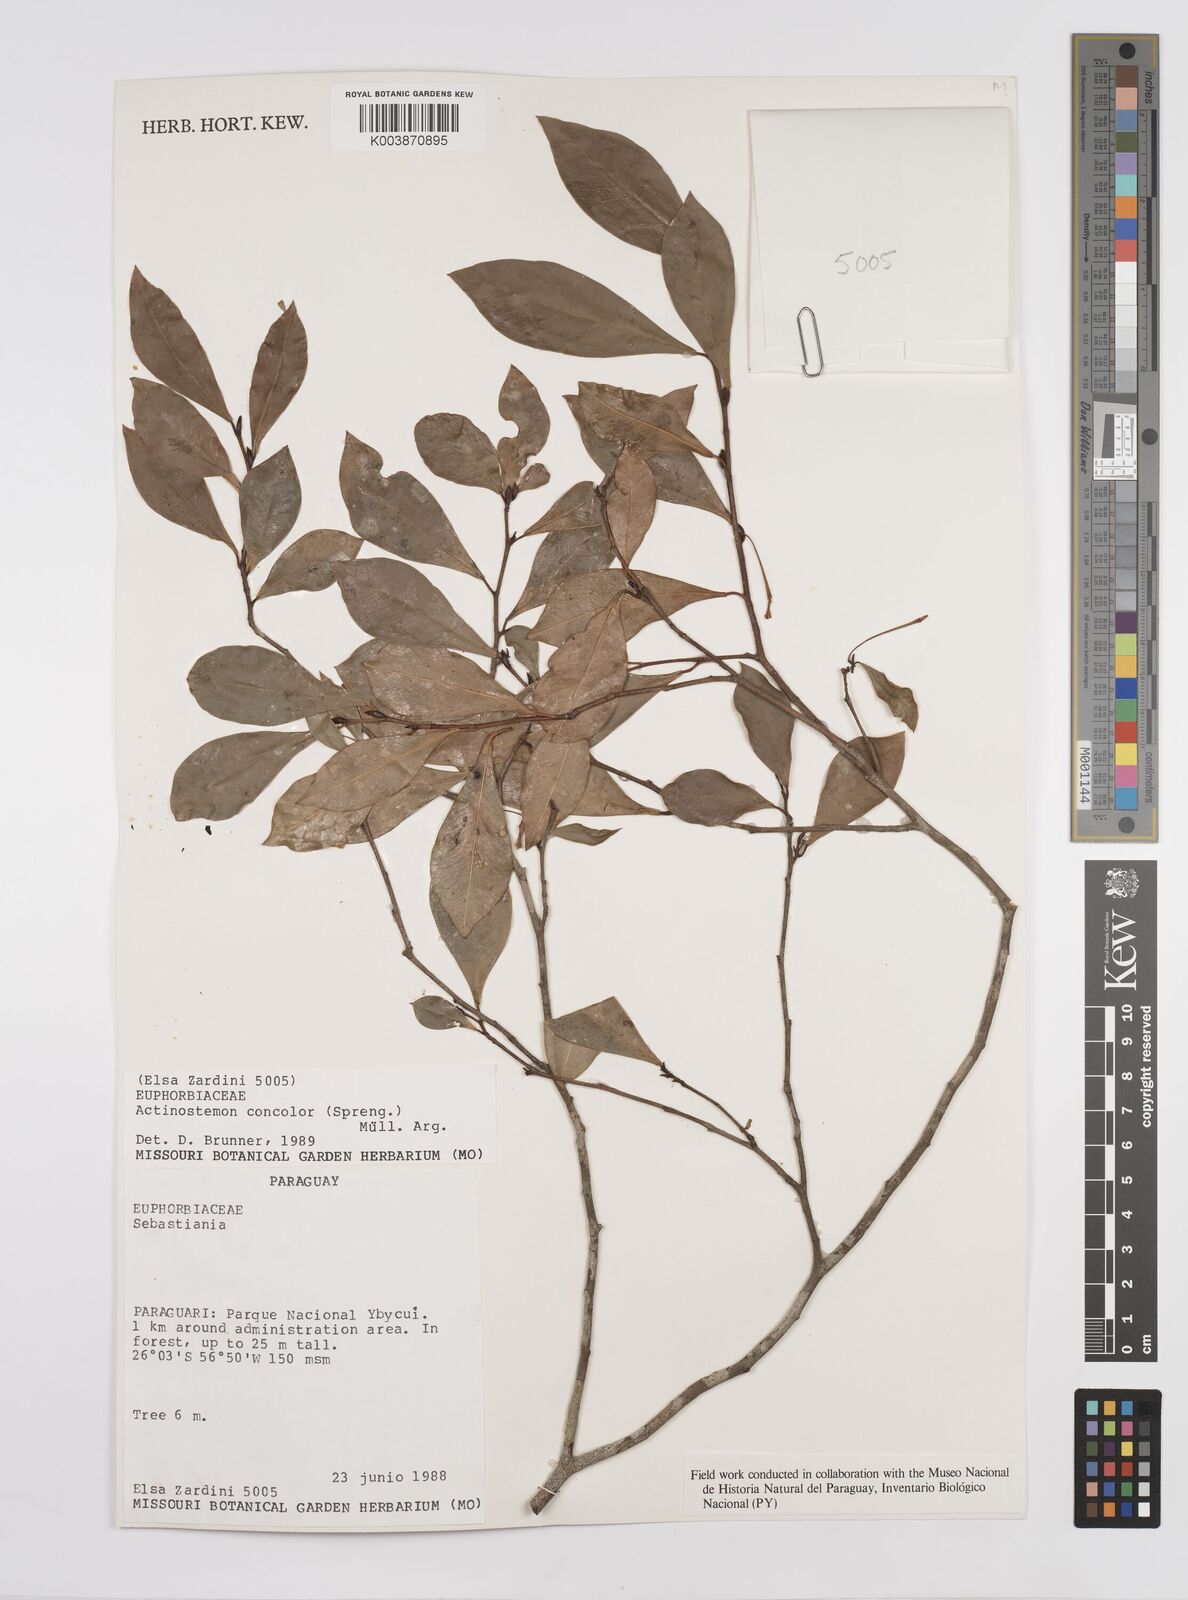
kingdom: Plantae
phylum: Tracheophyta
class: Magnoliopsida
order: Malpighiales
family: Euphorbiaceae
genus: Actinostemon
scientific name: Actinostemon concolor
